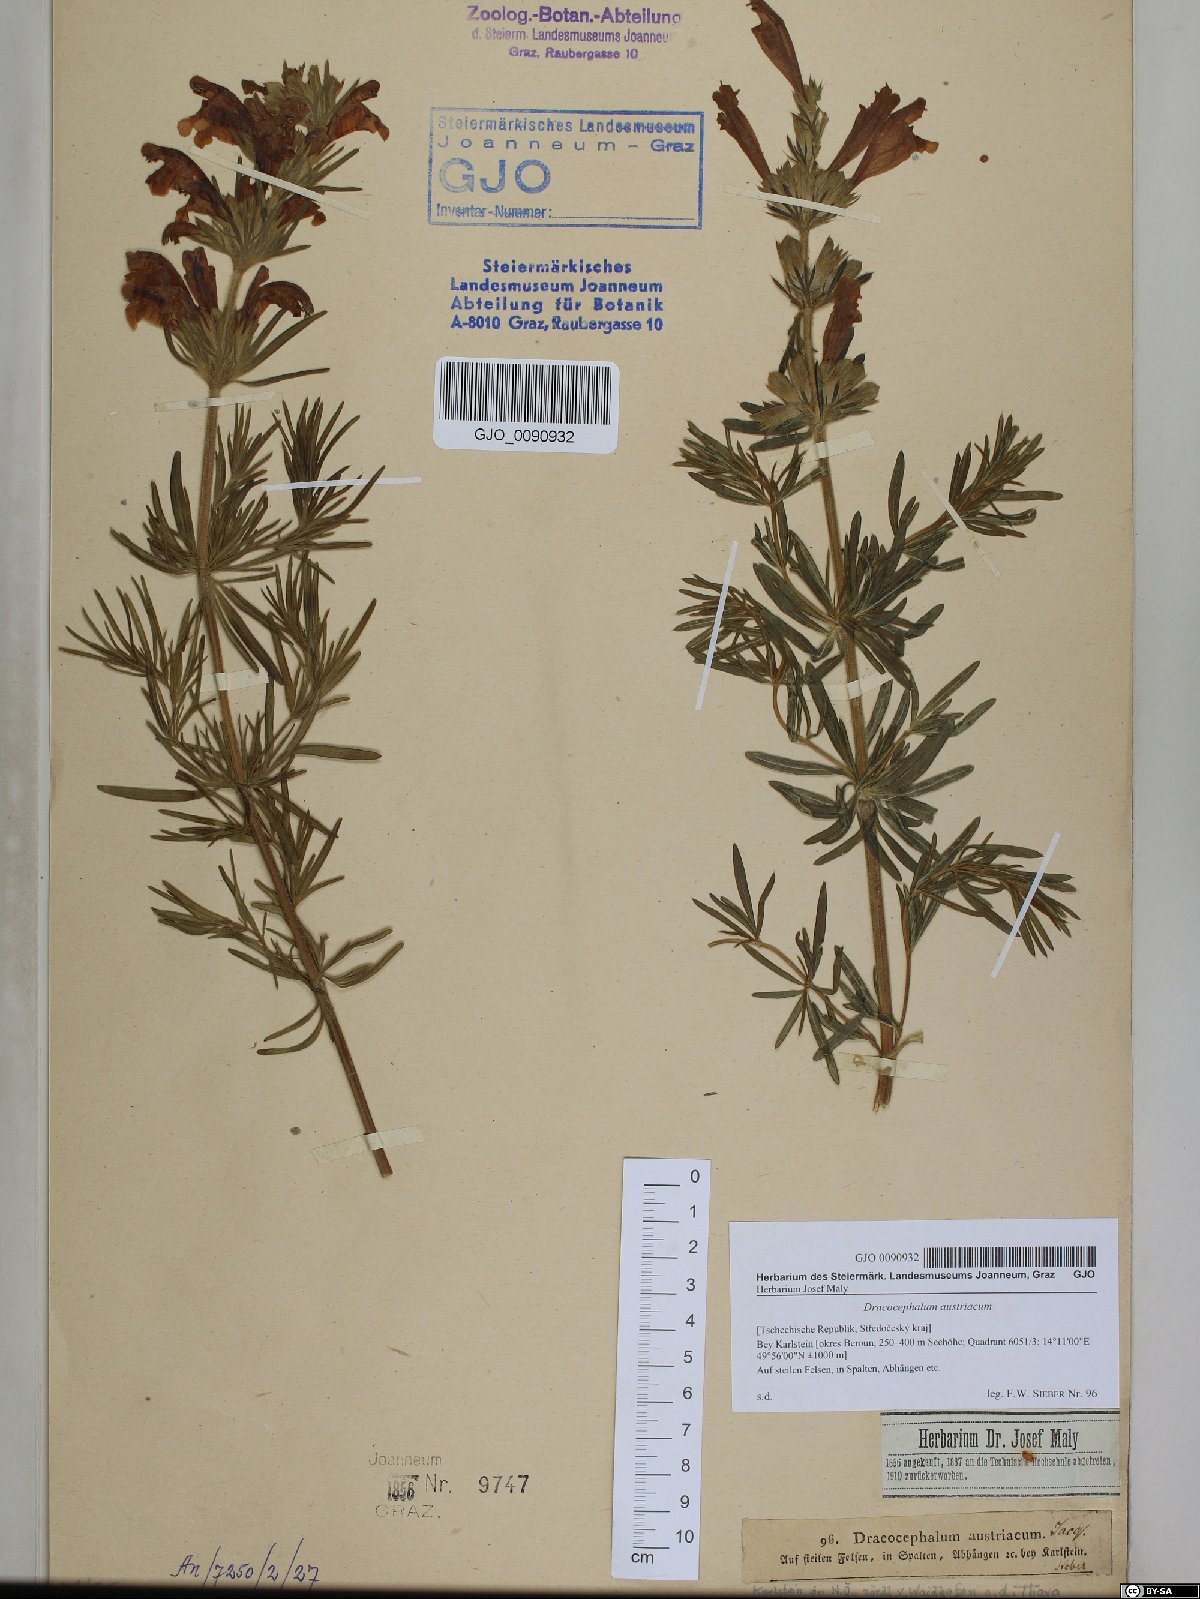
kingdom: Plantae
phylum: Tracheophyta
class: Magnoliopsida
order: Lamiales
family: Lamiaceae
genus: Dracocephalum
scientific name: Dracocephalum austriacum
